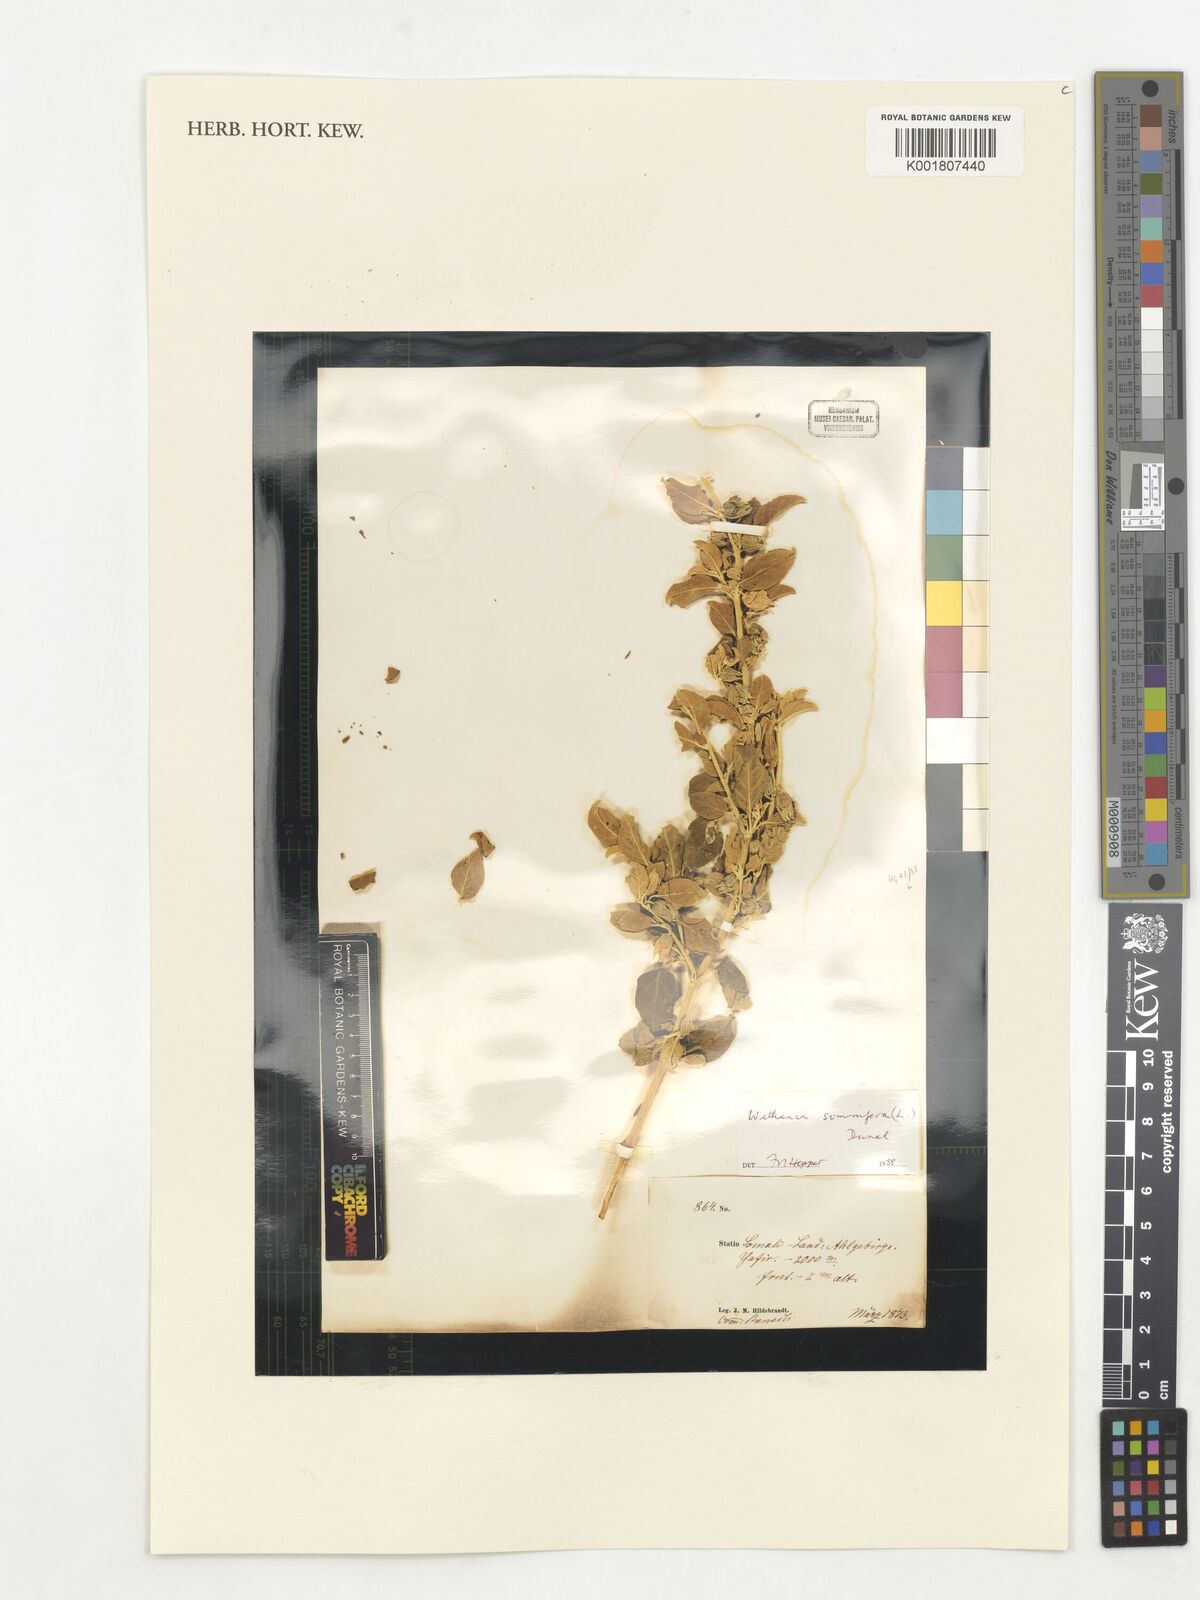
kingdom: Plantae
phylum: Tracheophyta
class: Magnoliopsida
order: Solanales
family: Solanaceae
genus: Withania
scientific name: Withania somnifera
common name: Winter-cherry
